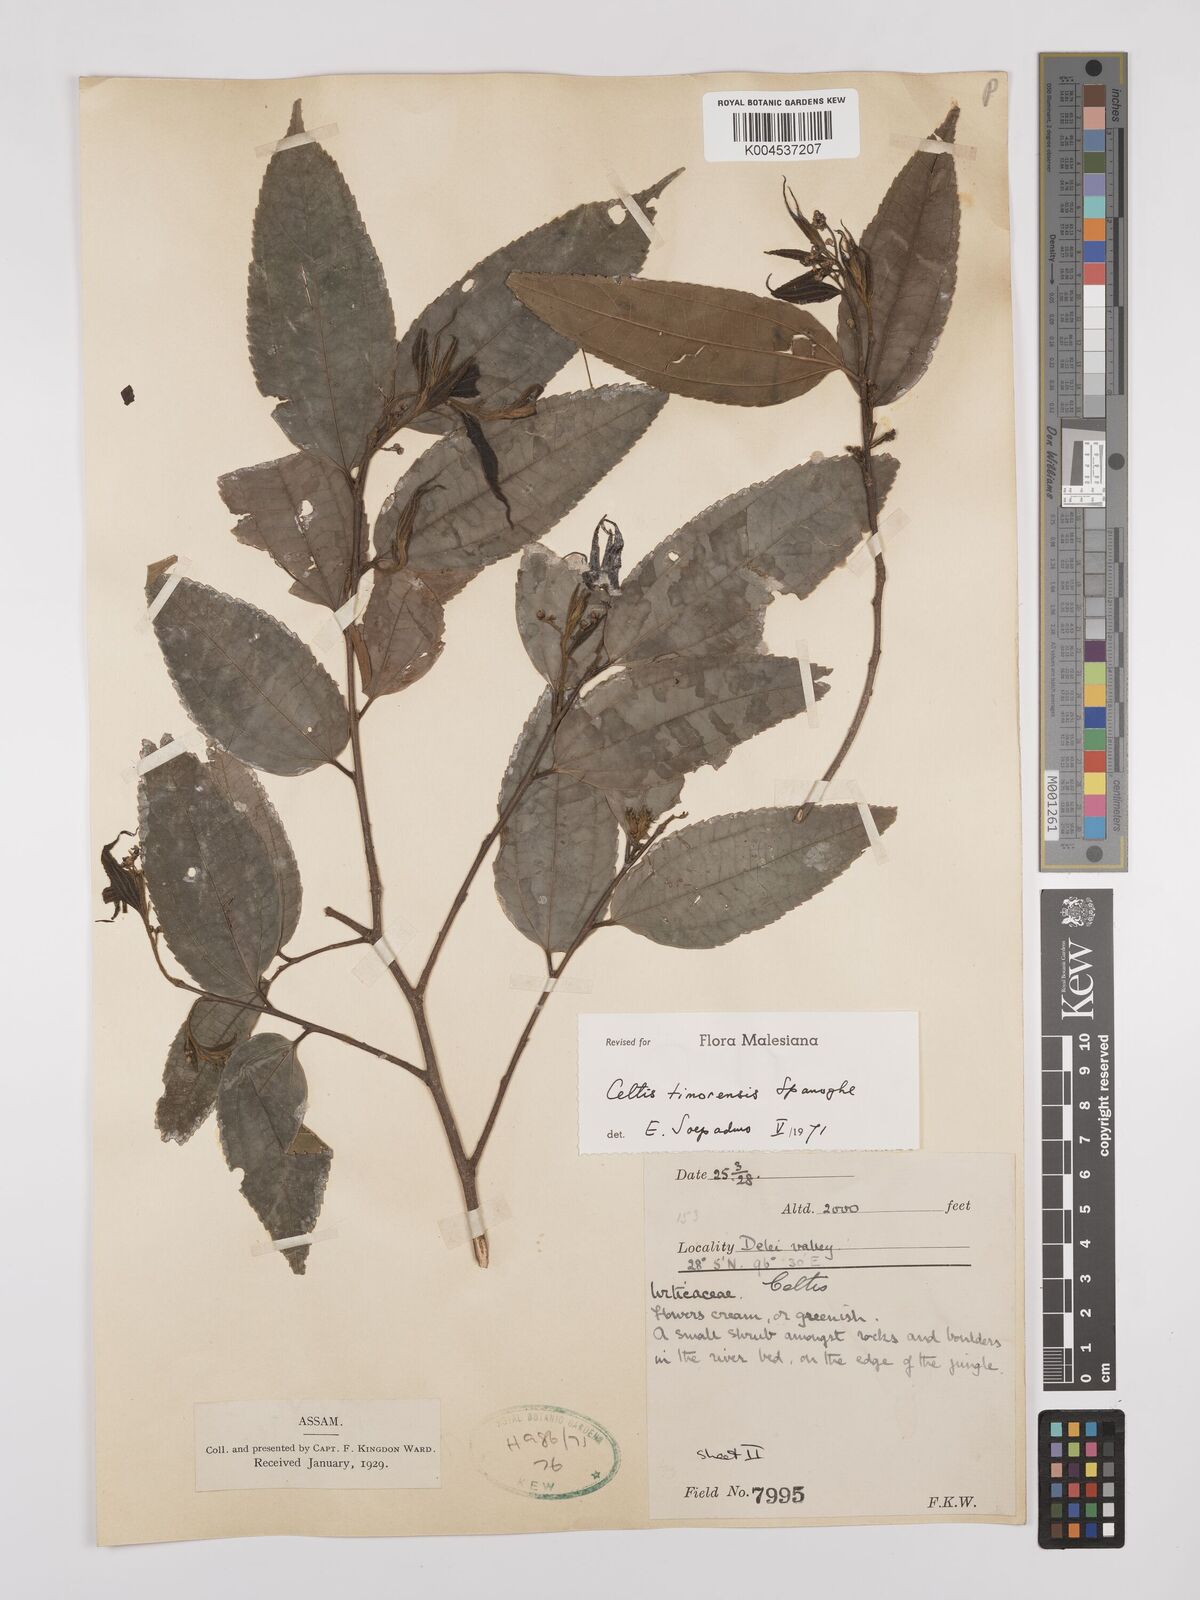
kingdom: Plantae
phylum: Tracheophyta
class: Magnoliopsida
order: Rosales
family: Cannabaceae
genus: Celtis
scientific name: Celtis timorensis
